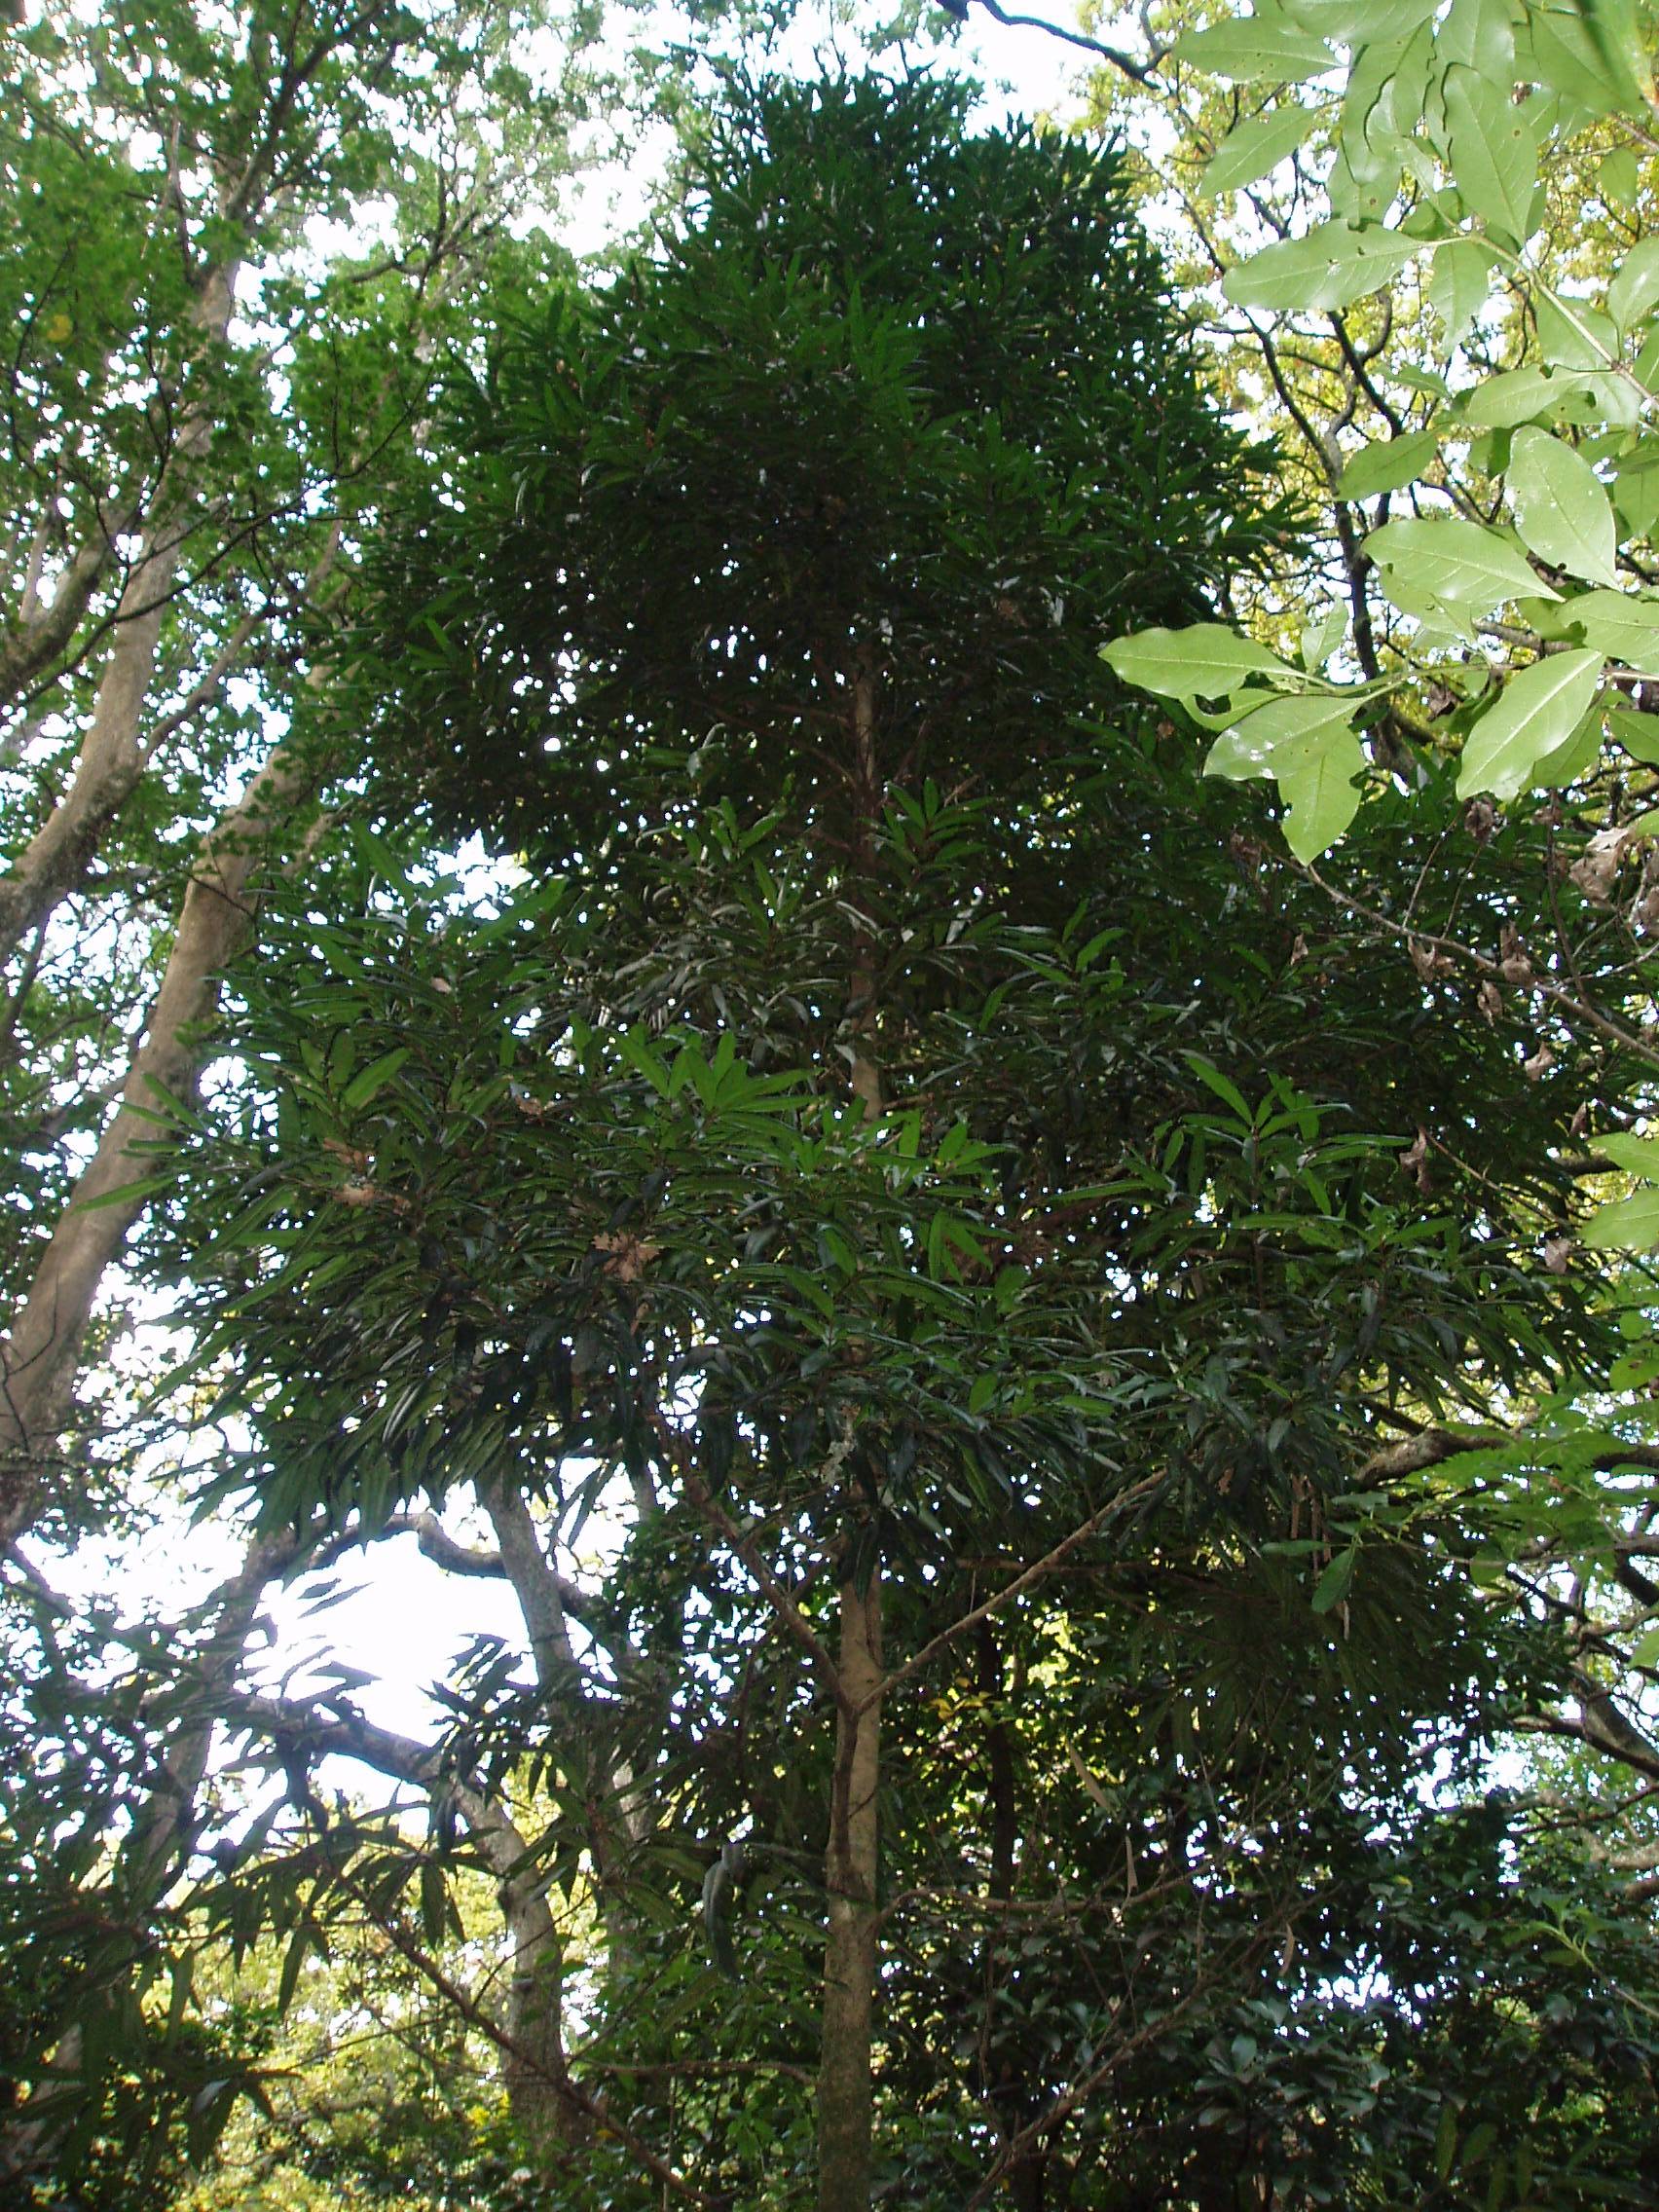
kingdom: Plantae
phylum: Tracheophyta
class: Magnoliopsida
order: Myrtales
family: Myrtaceae
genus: Syzygium
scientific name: Syzygium ingens
